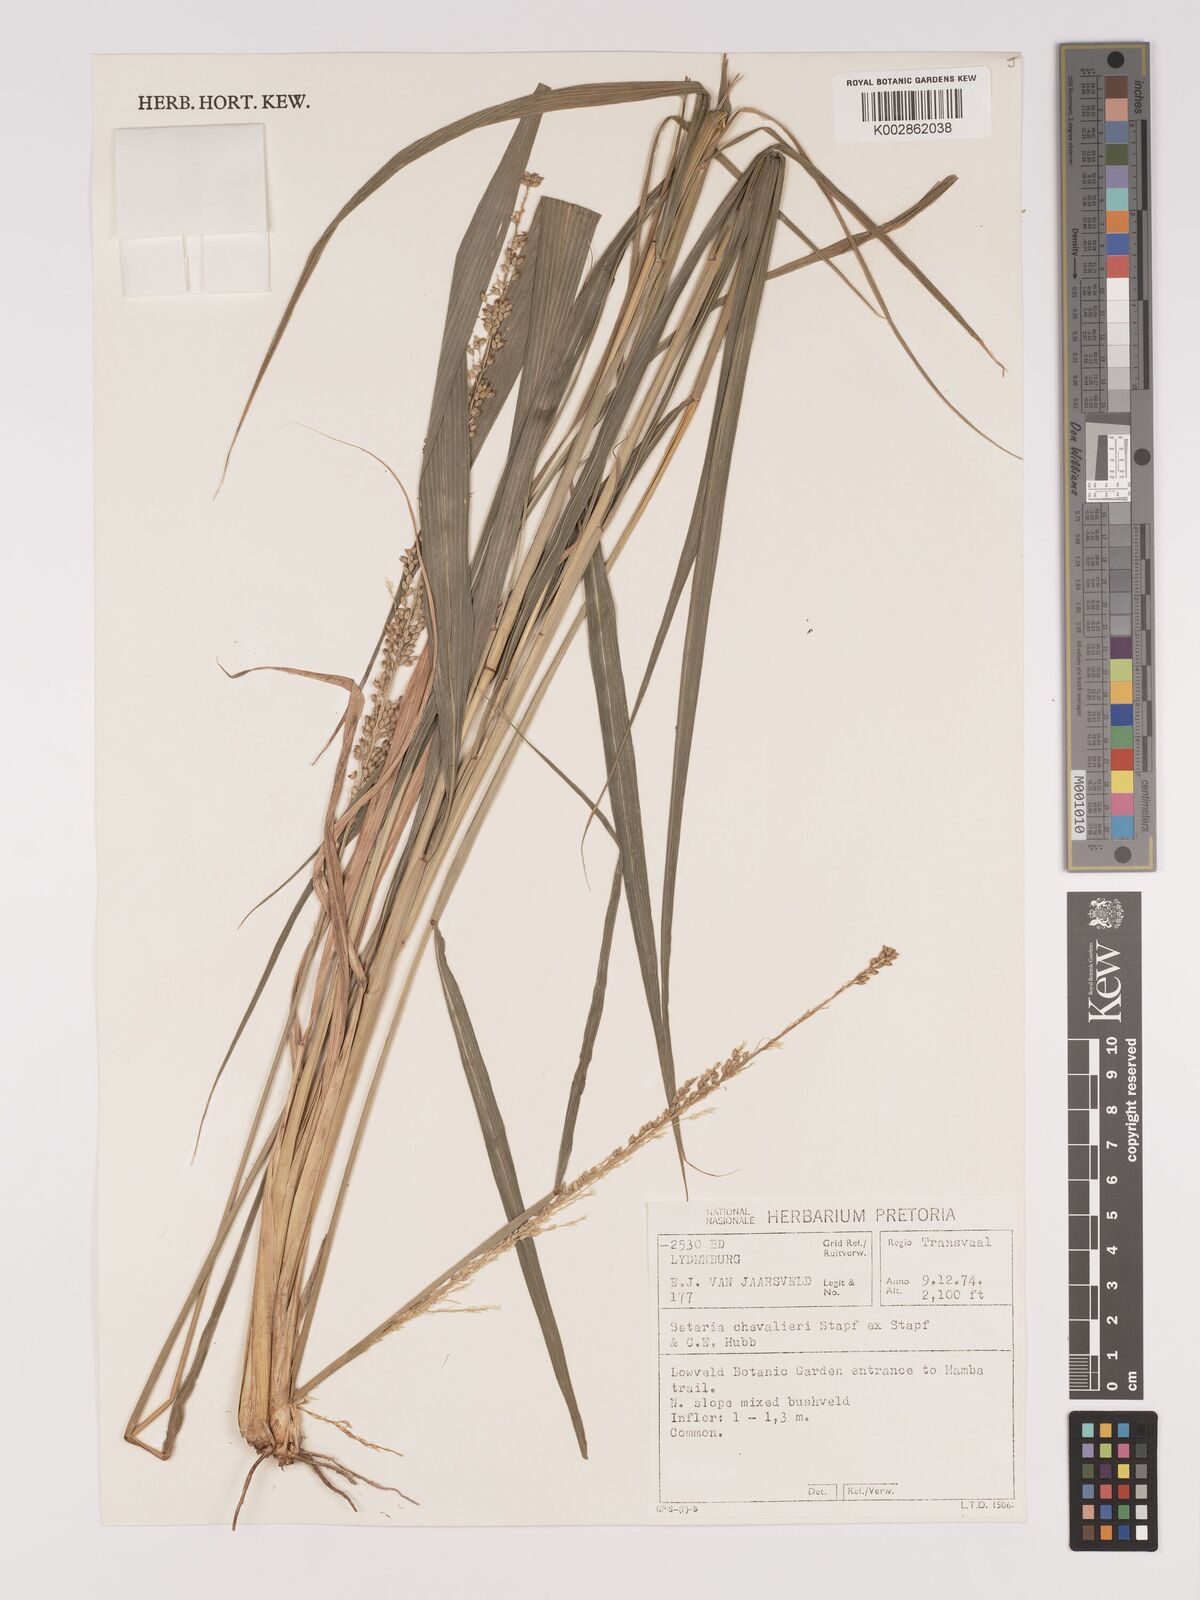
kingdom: Plantae
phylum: Tracheophyta
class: Liliopsida
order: Poales
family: Poaceae
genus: Setaria
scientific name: Setaria megaphylla
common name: Bigleaf bristlegrass
